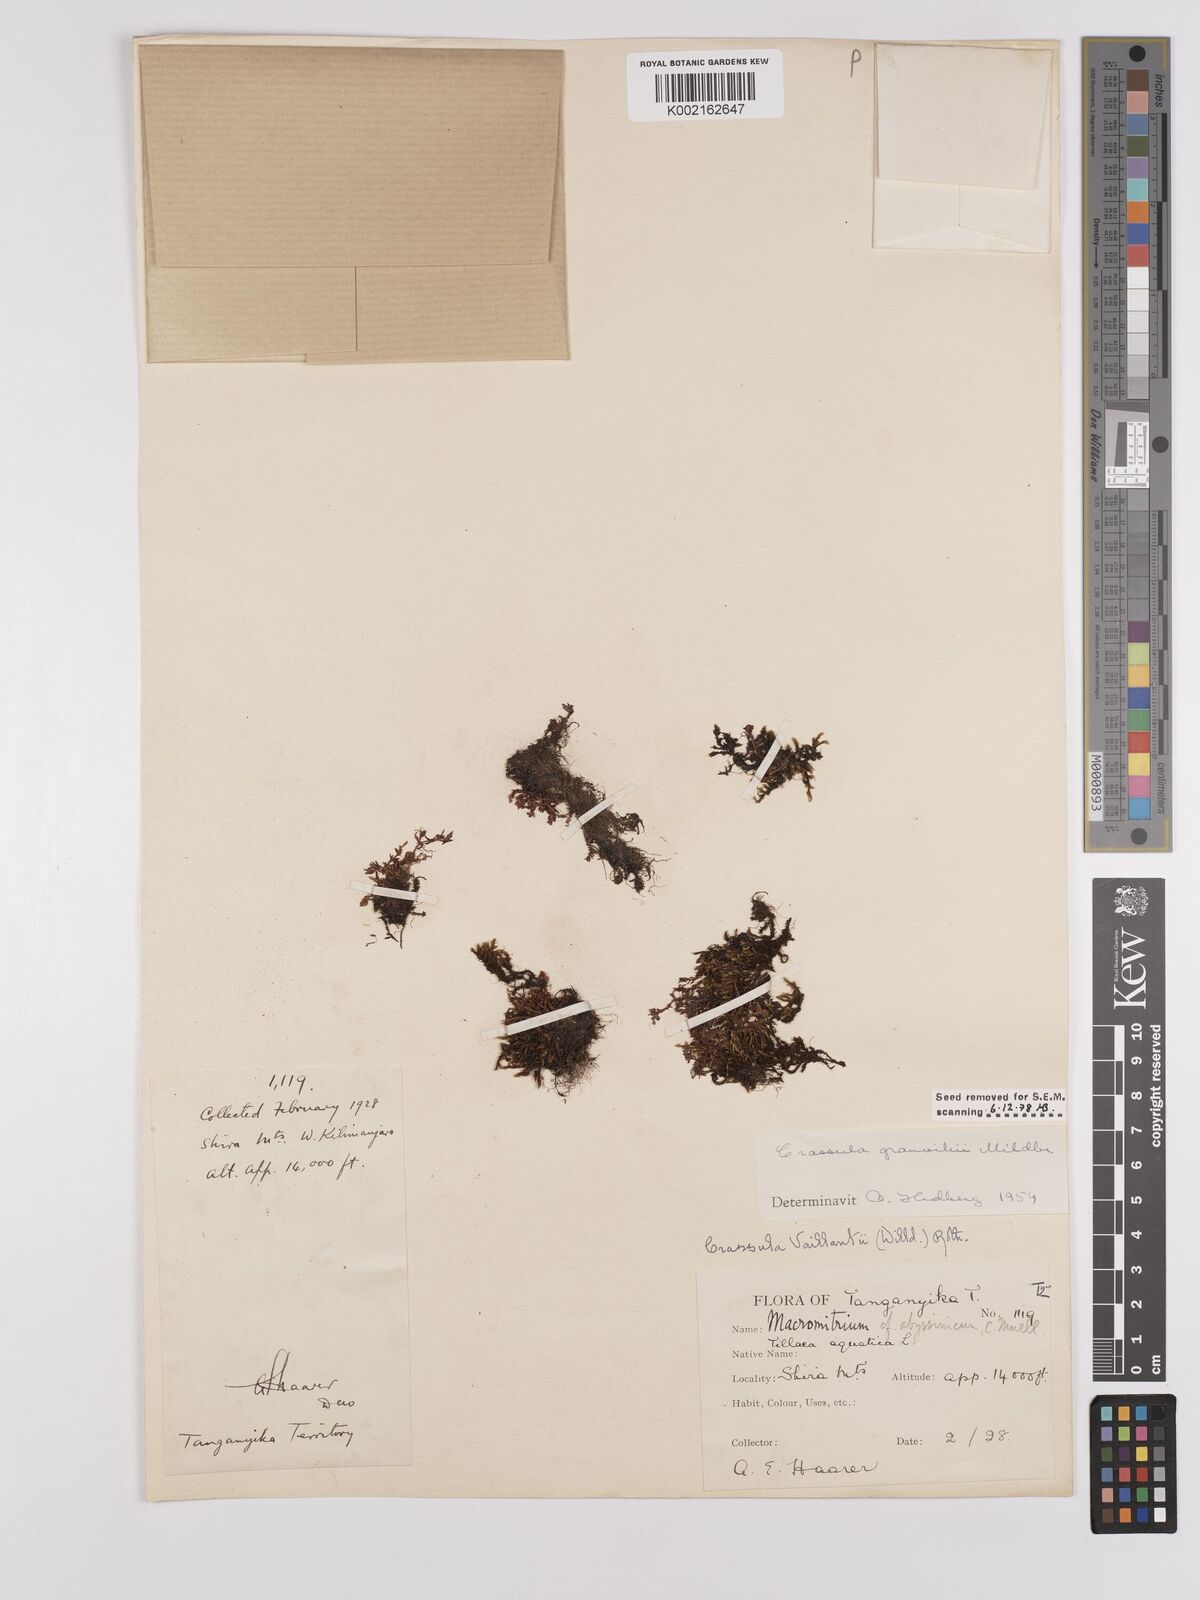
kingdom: Plantae
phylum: Tracheophyta
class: Magnoliopsida
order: Saxifragales
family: Crassulaceae
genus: Crassula
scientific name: Crassula granvikii
